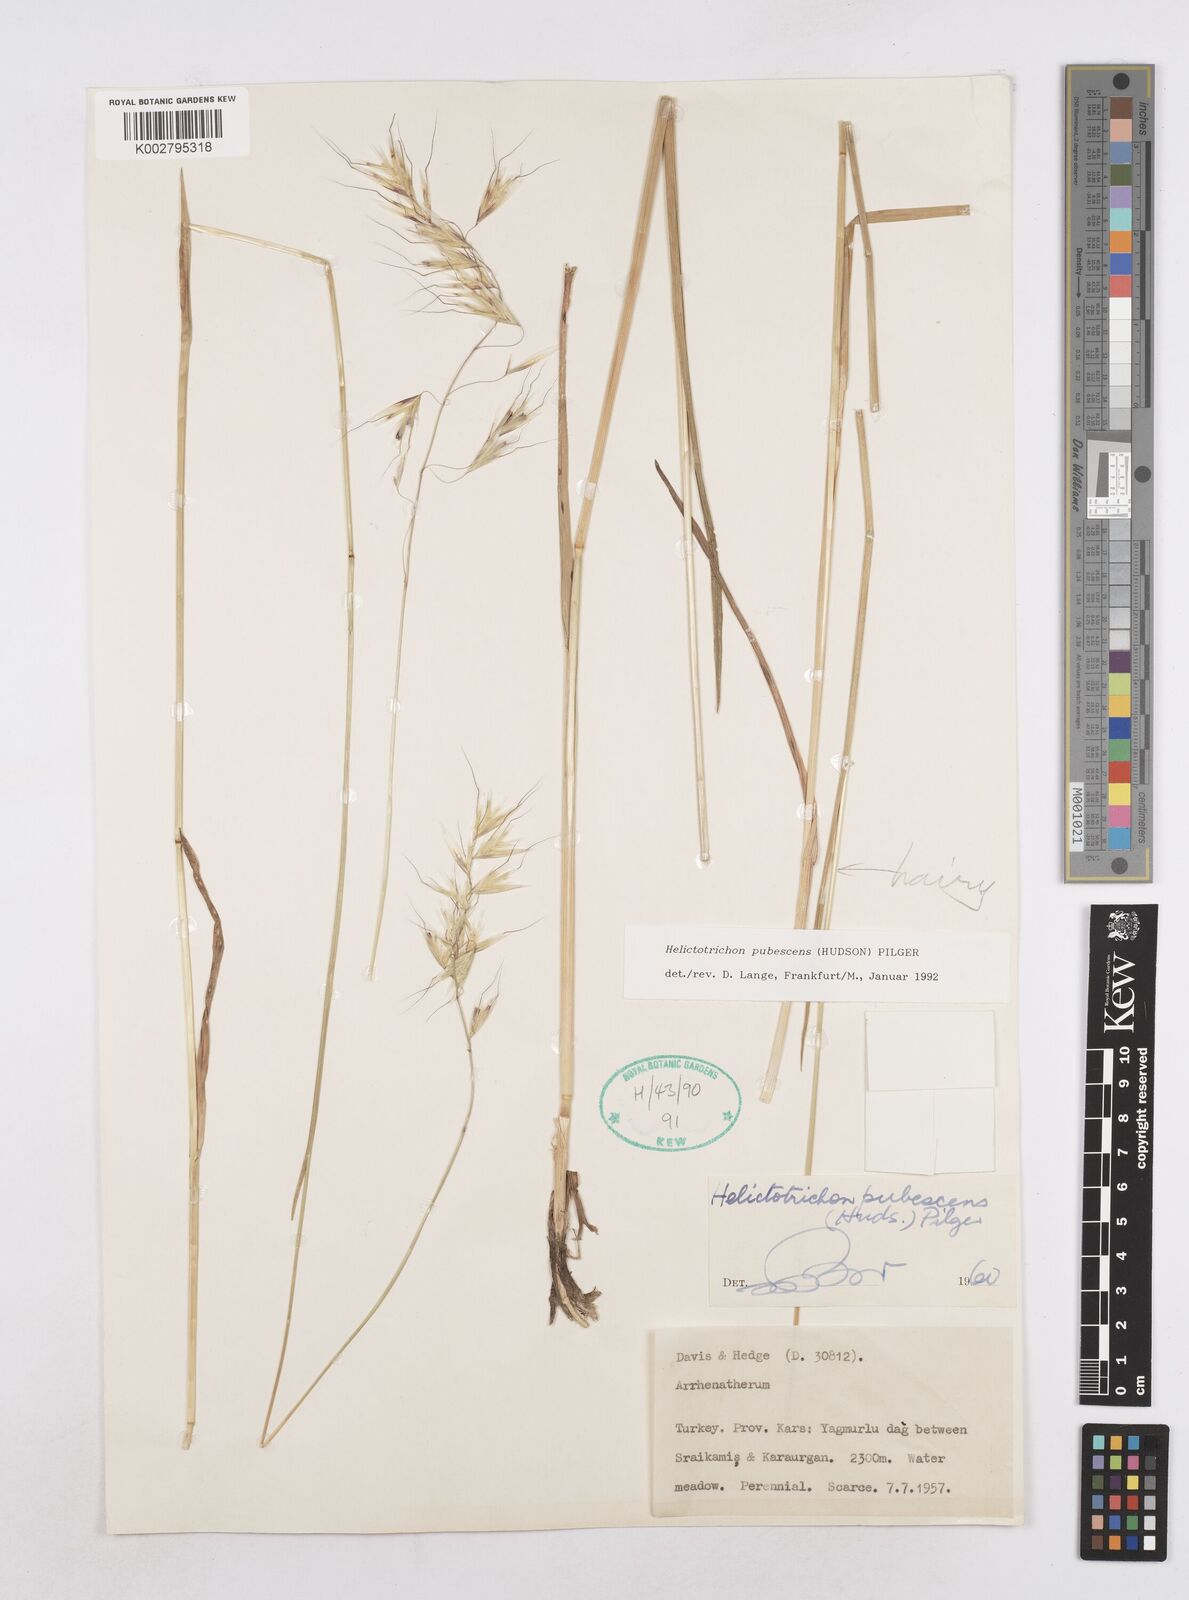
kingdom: Plantae
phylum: Tracheophyta
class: Liliopsida
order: Poales
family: Poaceae
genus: Avenula
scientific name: Avenula pubescens
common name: Downy alpine oatgrass
